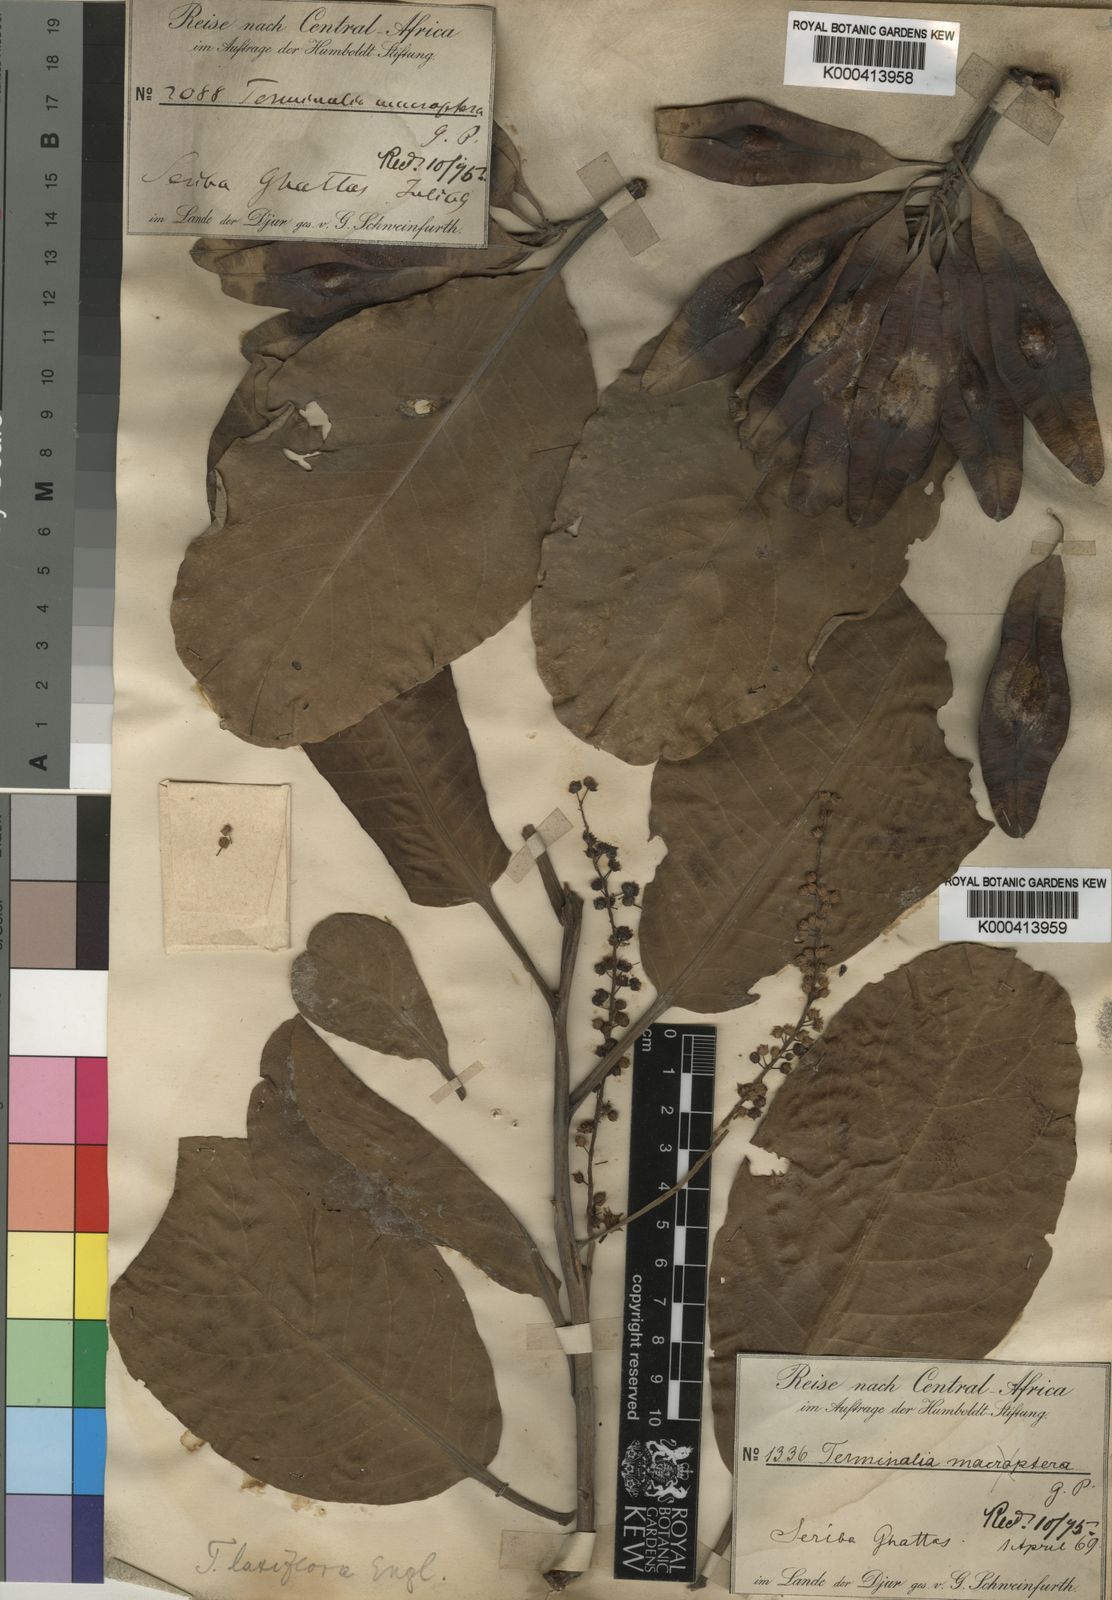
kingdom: Plantae
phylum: Tracheophyta
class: Magnoliopsida
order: Myrtales
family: Combretaceae
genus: Terminalia
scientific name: Terminalia laxiflora
